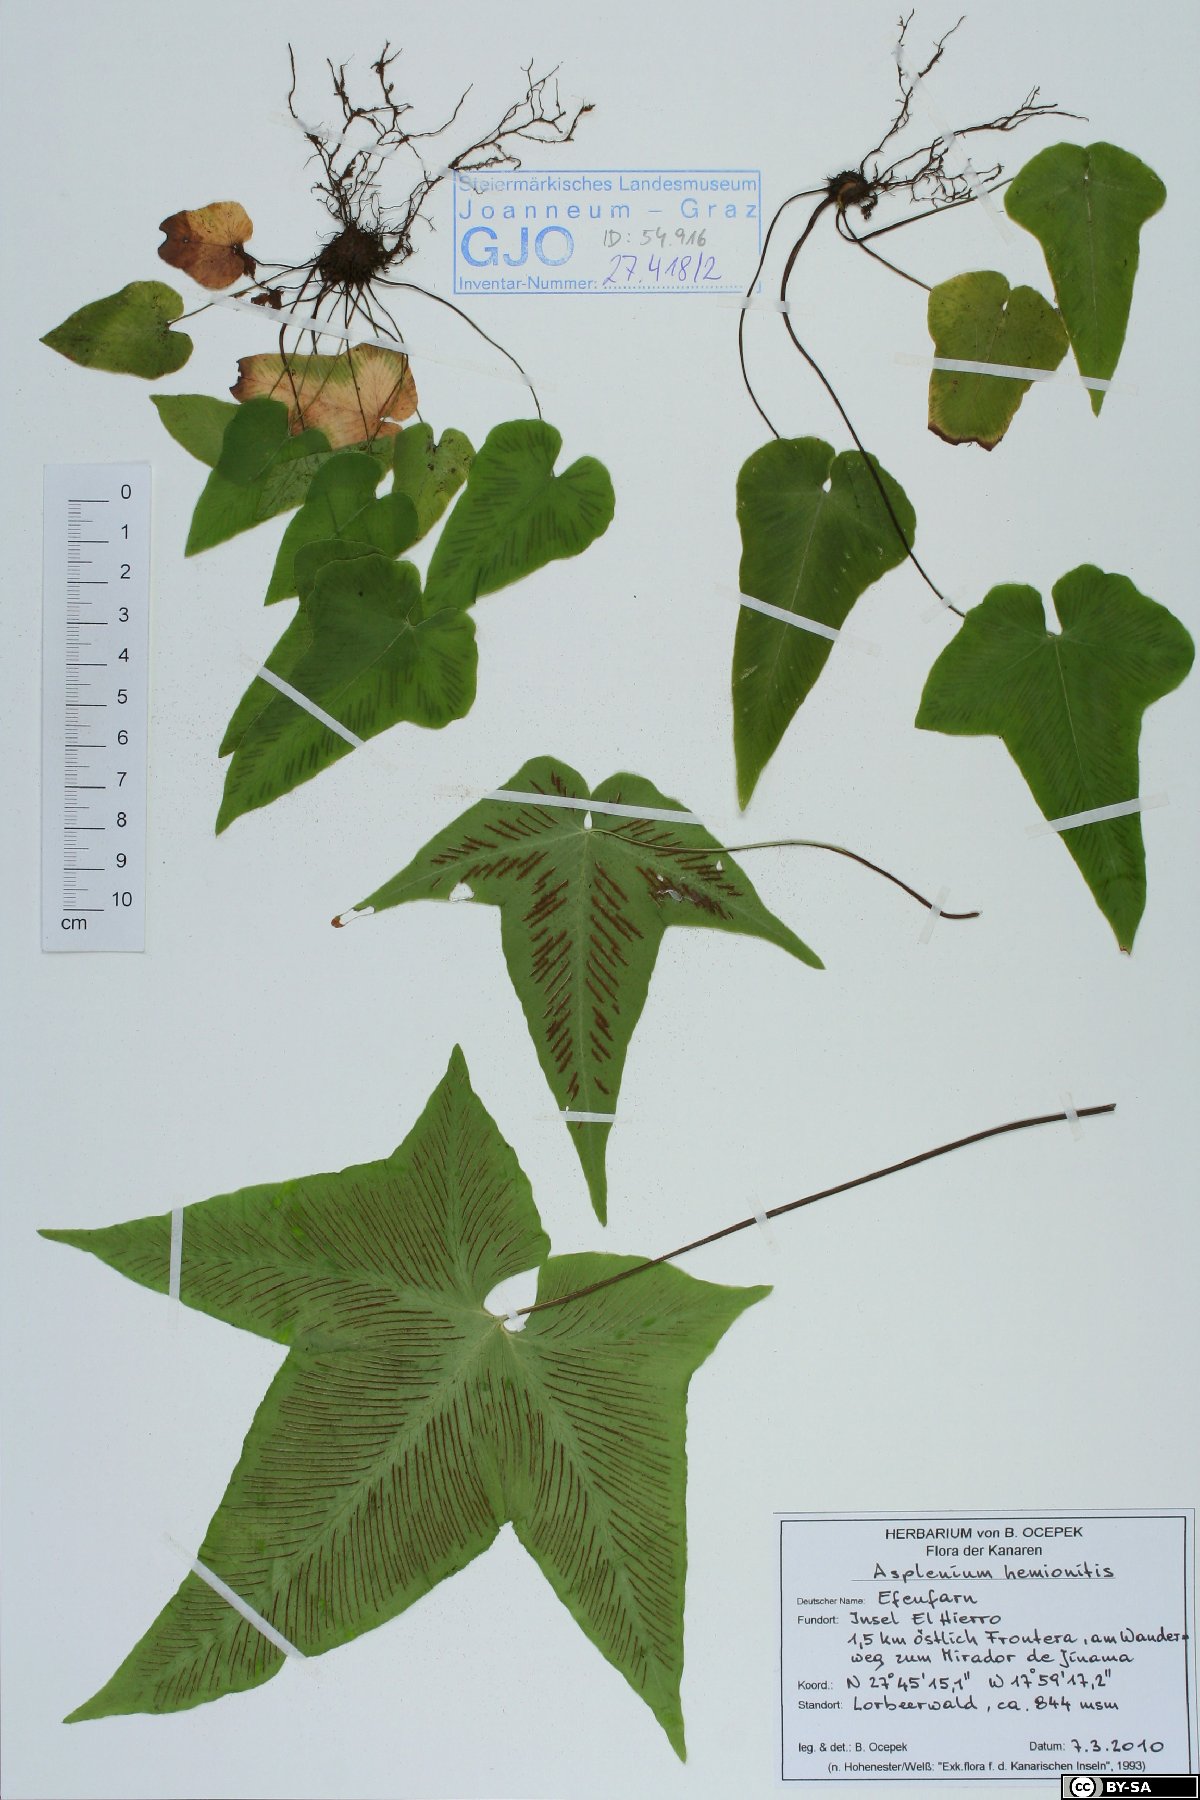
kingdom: Plantae
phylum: Tracheophyta
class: Polypodiopsida
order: Polypodiales
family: Aspleniaceae
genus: Asplenium
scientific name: Asplenium hemionitis
